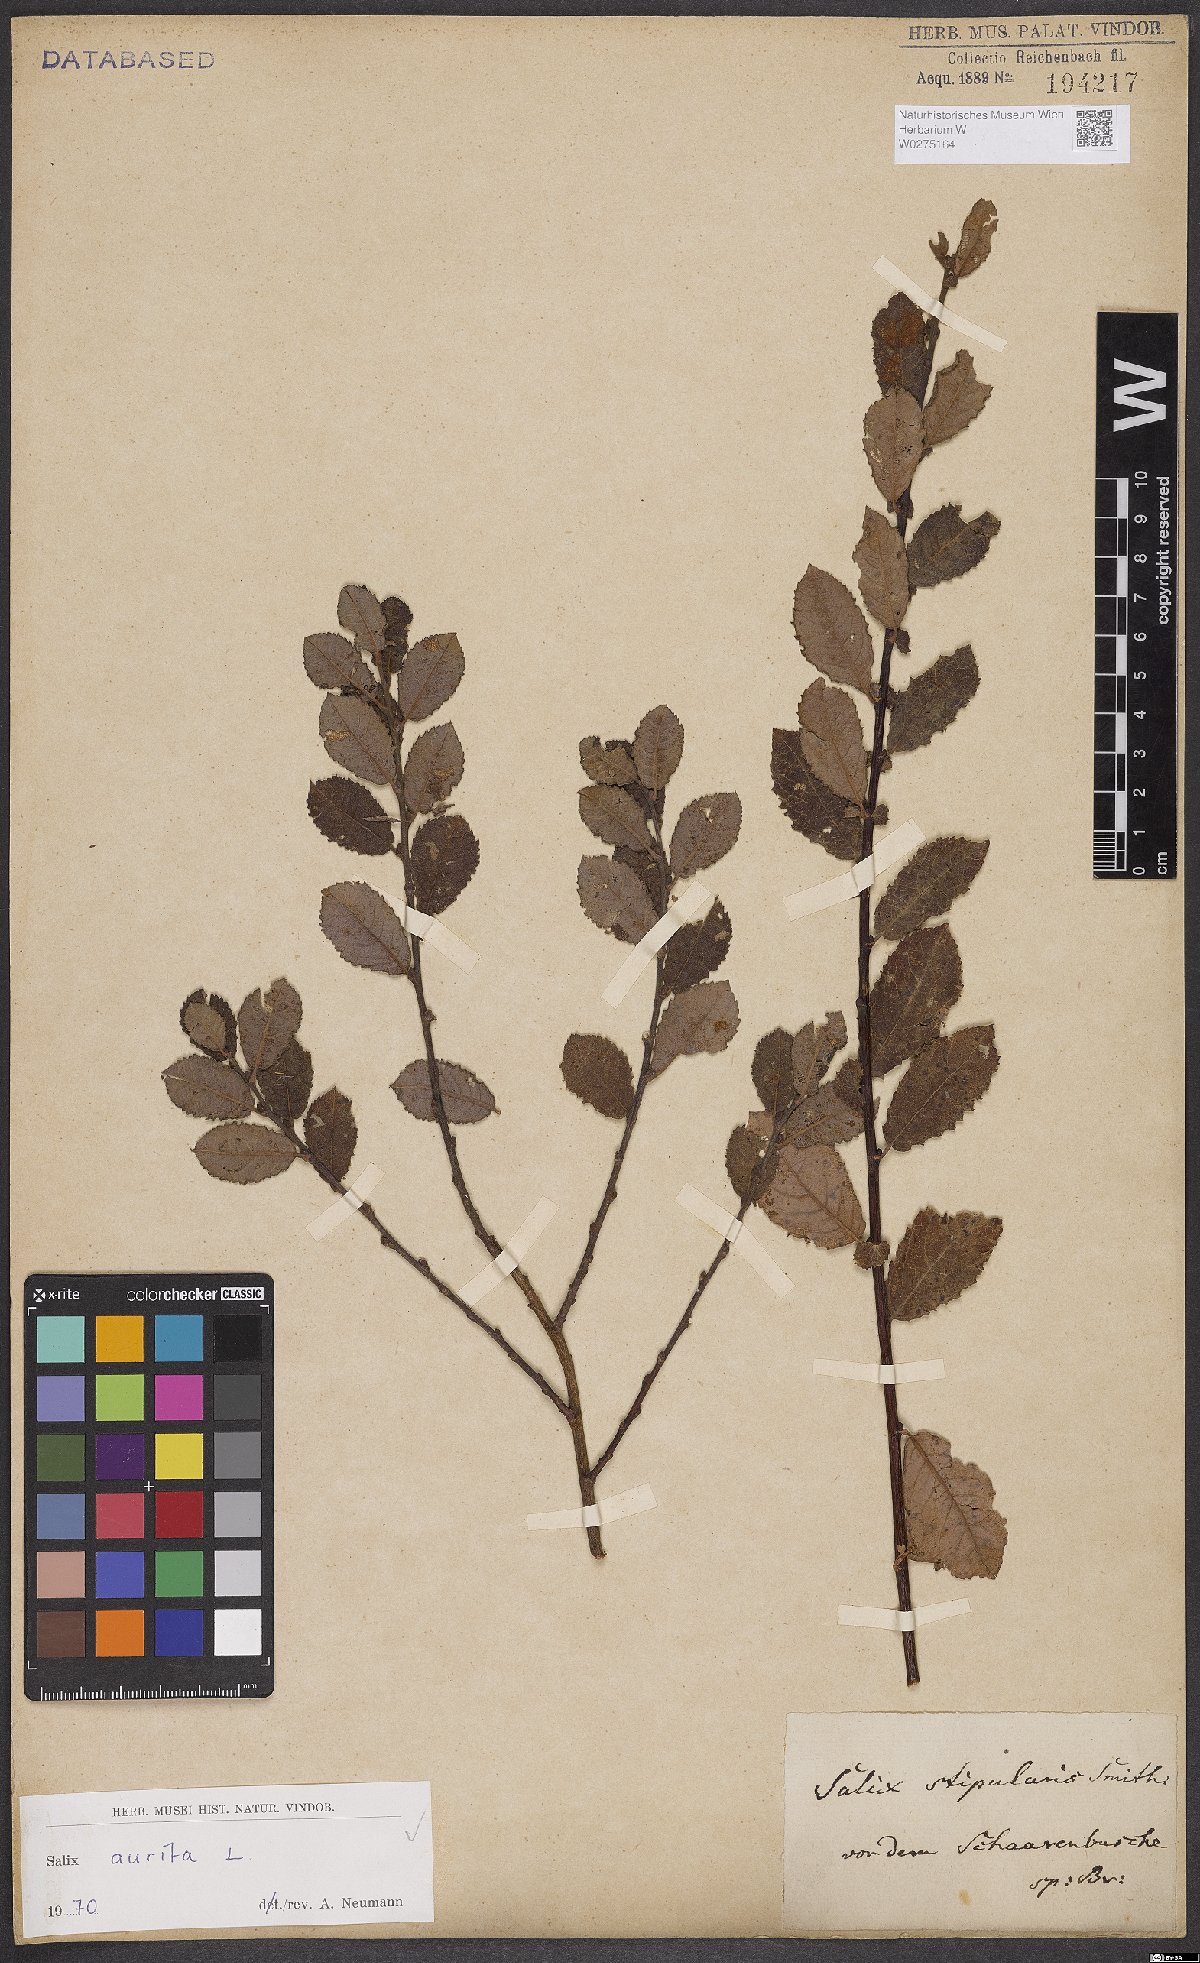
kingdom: Plantae
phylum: Tracheophyta
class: Magnoliopsida
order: Malpighiales
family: Salicaceae
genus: Salix
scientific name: Salix aurita
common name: Eared willow
